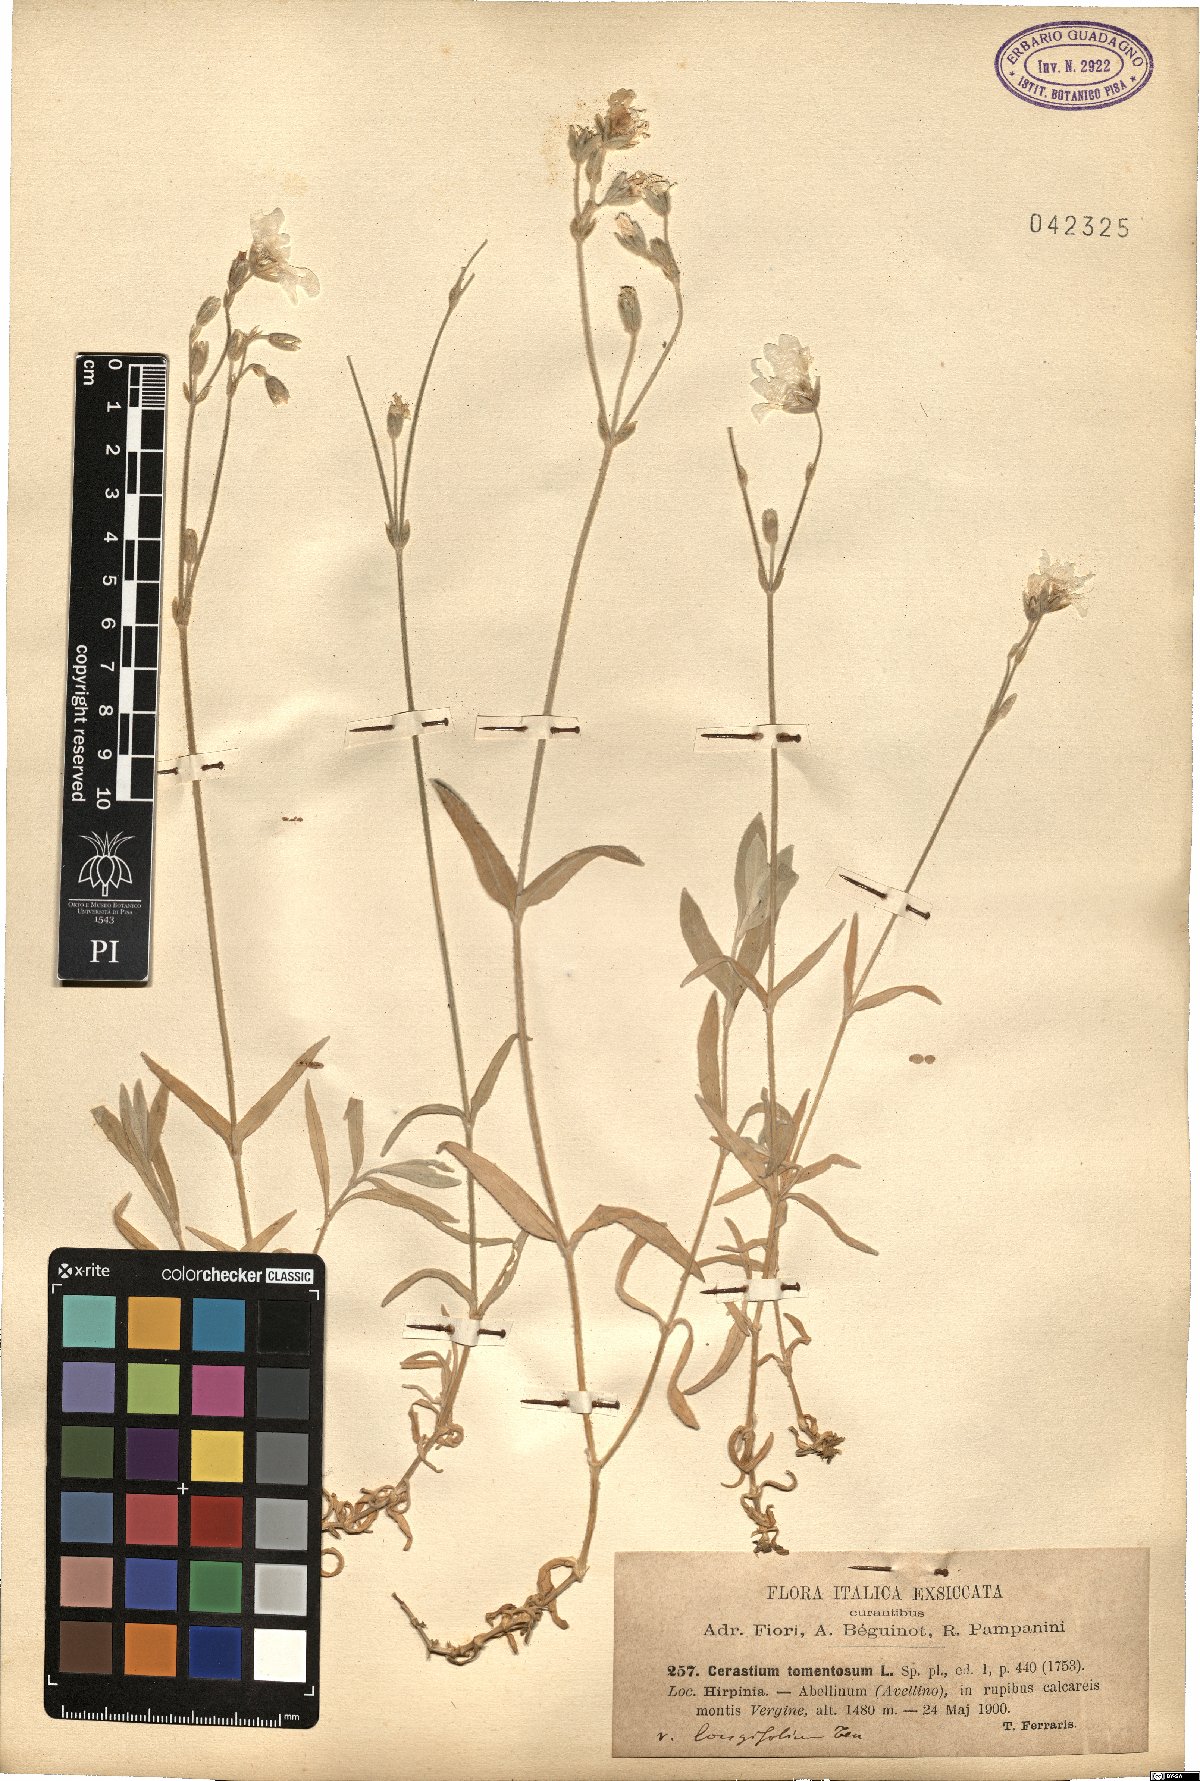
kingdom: Plantae
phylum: Tracheophyta
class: Magnoliopsida
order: Caryophyllales
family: Caryophyllaceae
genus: Cerastium
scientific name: Cerastium tomentosum
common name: Snow-in-summer
